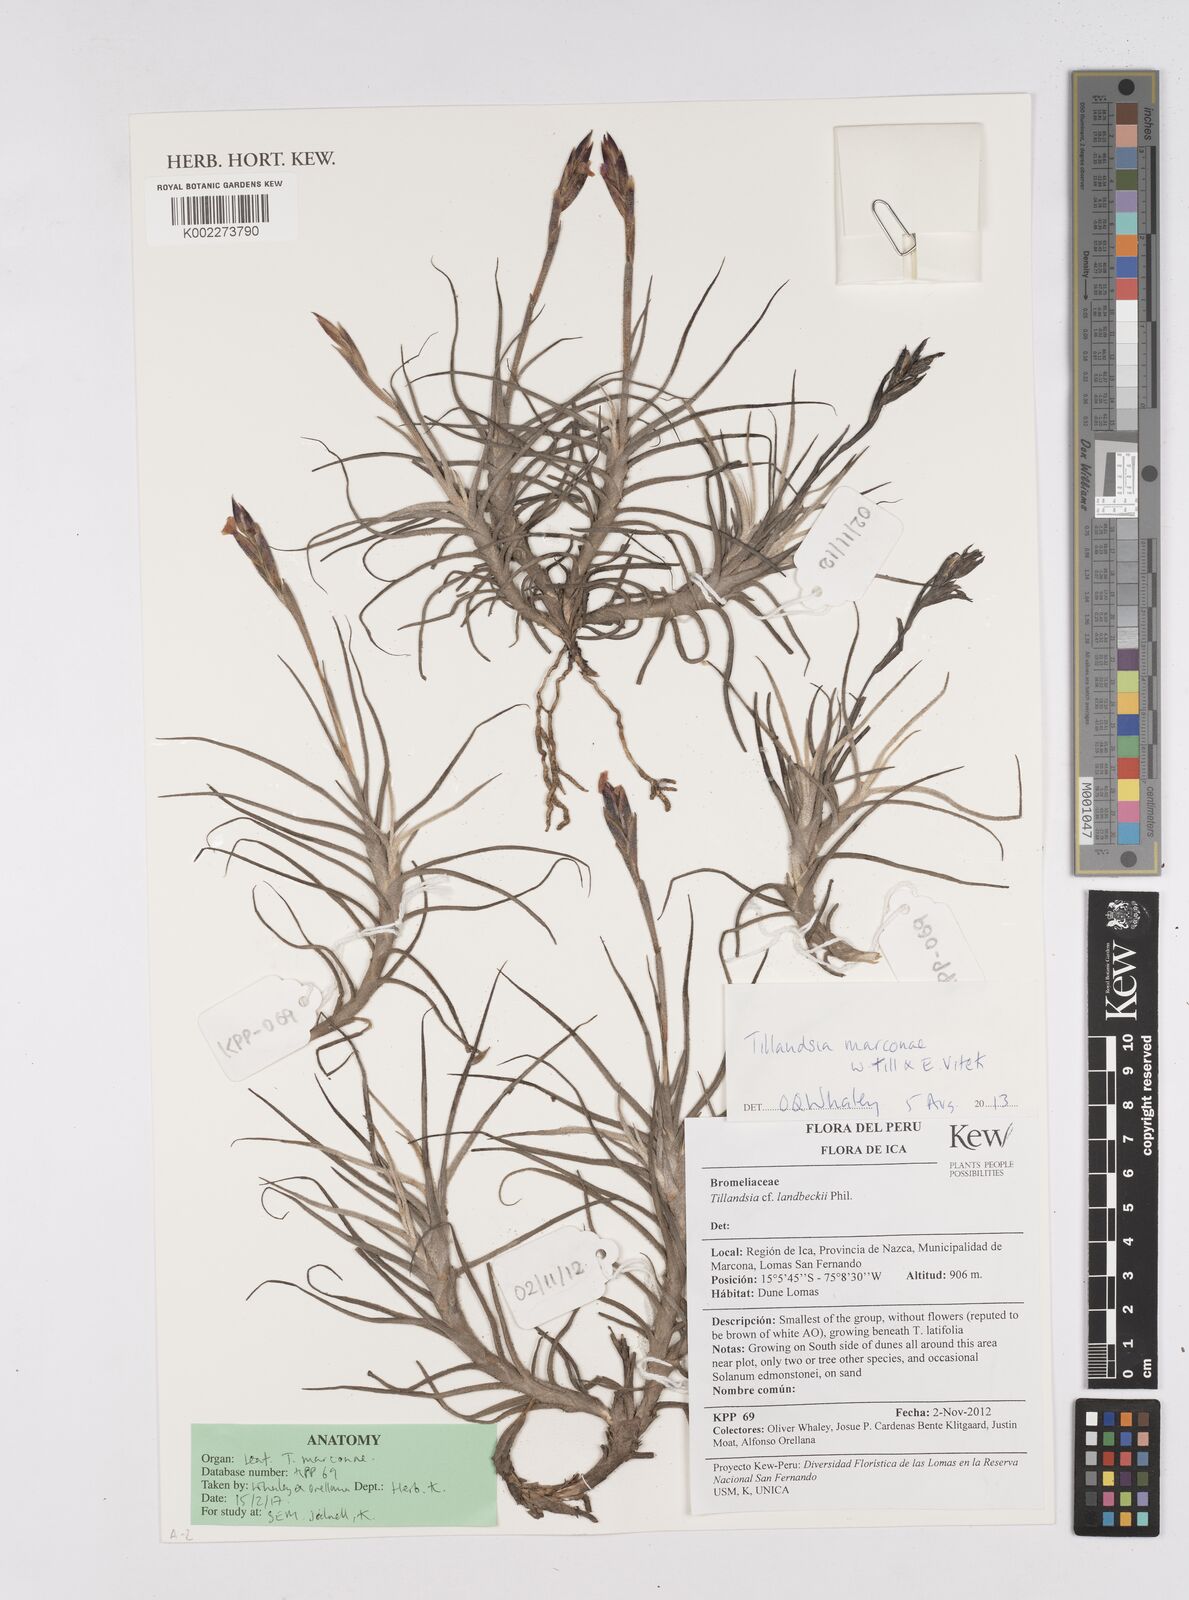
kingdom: Plantae
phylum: Tracheophyta
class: Liliopsida
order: Poales
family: Bromeliaceae
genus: Tillandsia
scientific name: Tillandsia marconae
